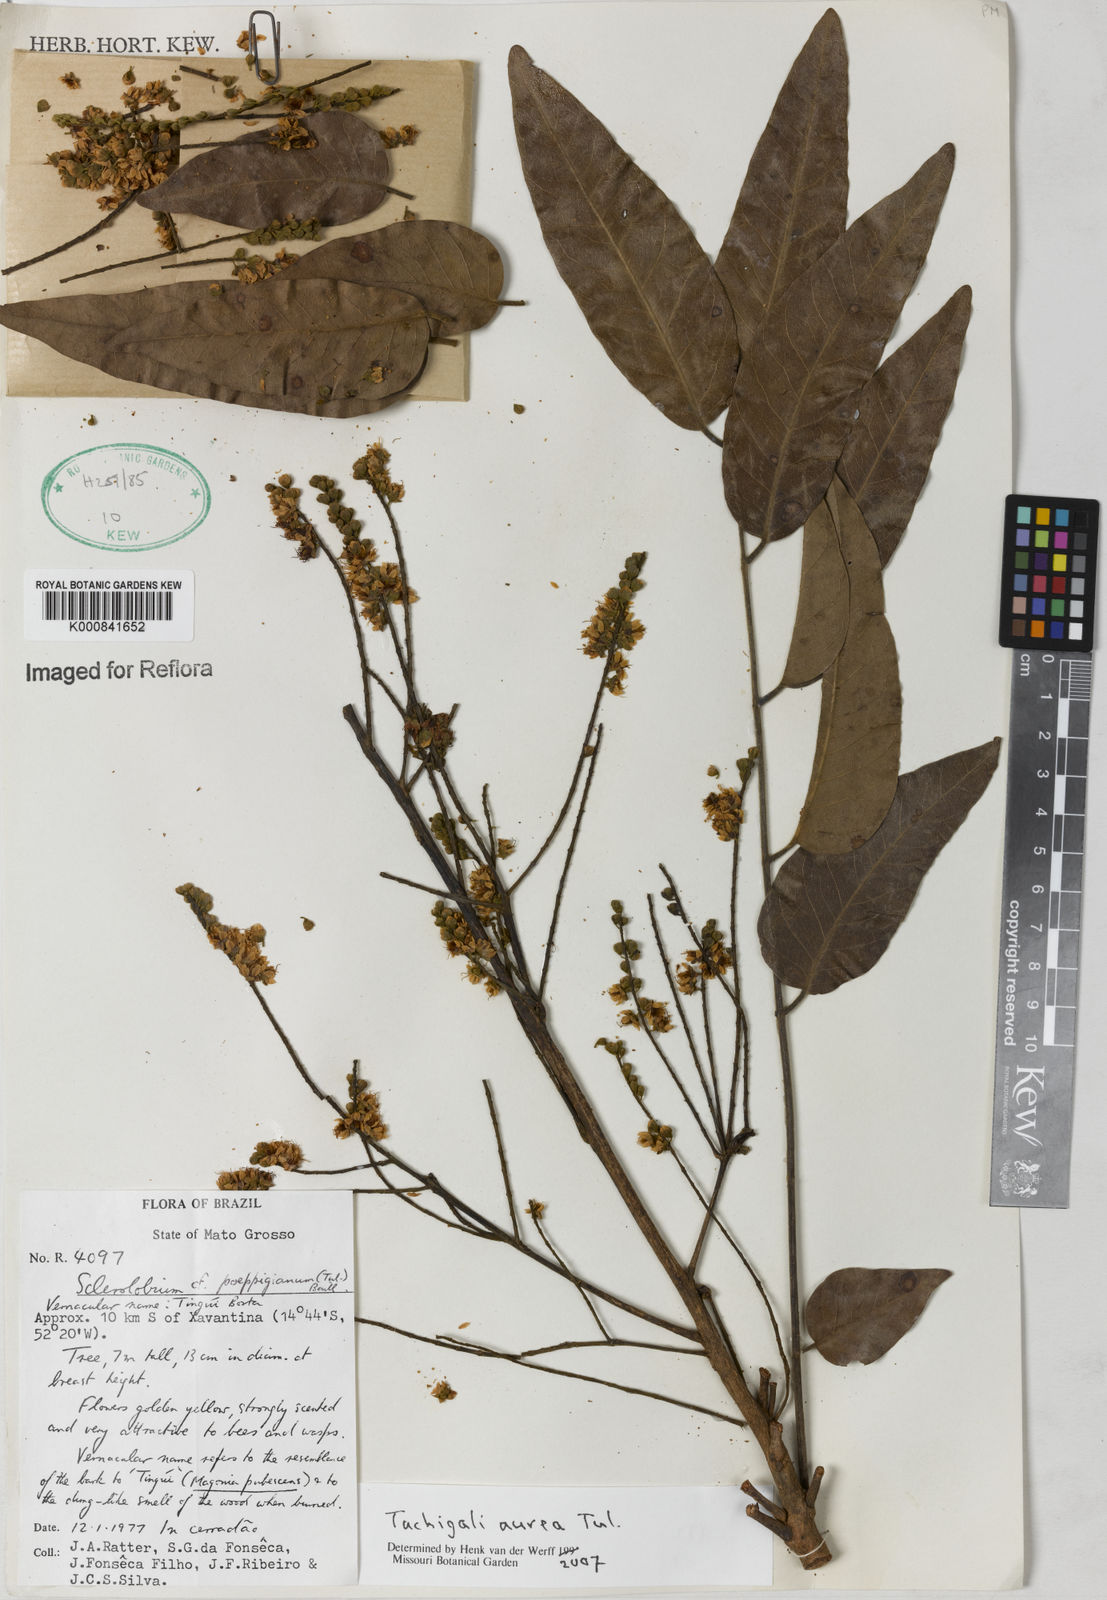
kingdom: Plantae
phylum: Tracheophyta
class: Magnoliopsida
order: Fabales
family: Fabaceae
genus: Tachigali
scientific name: Tachigali aurea
